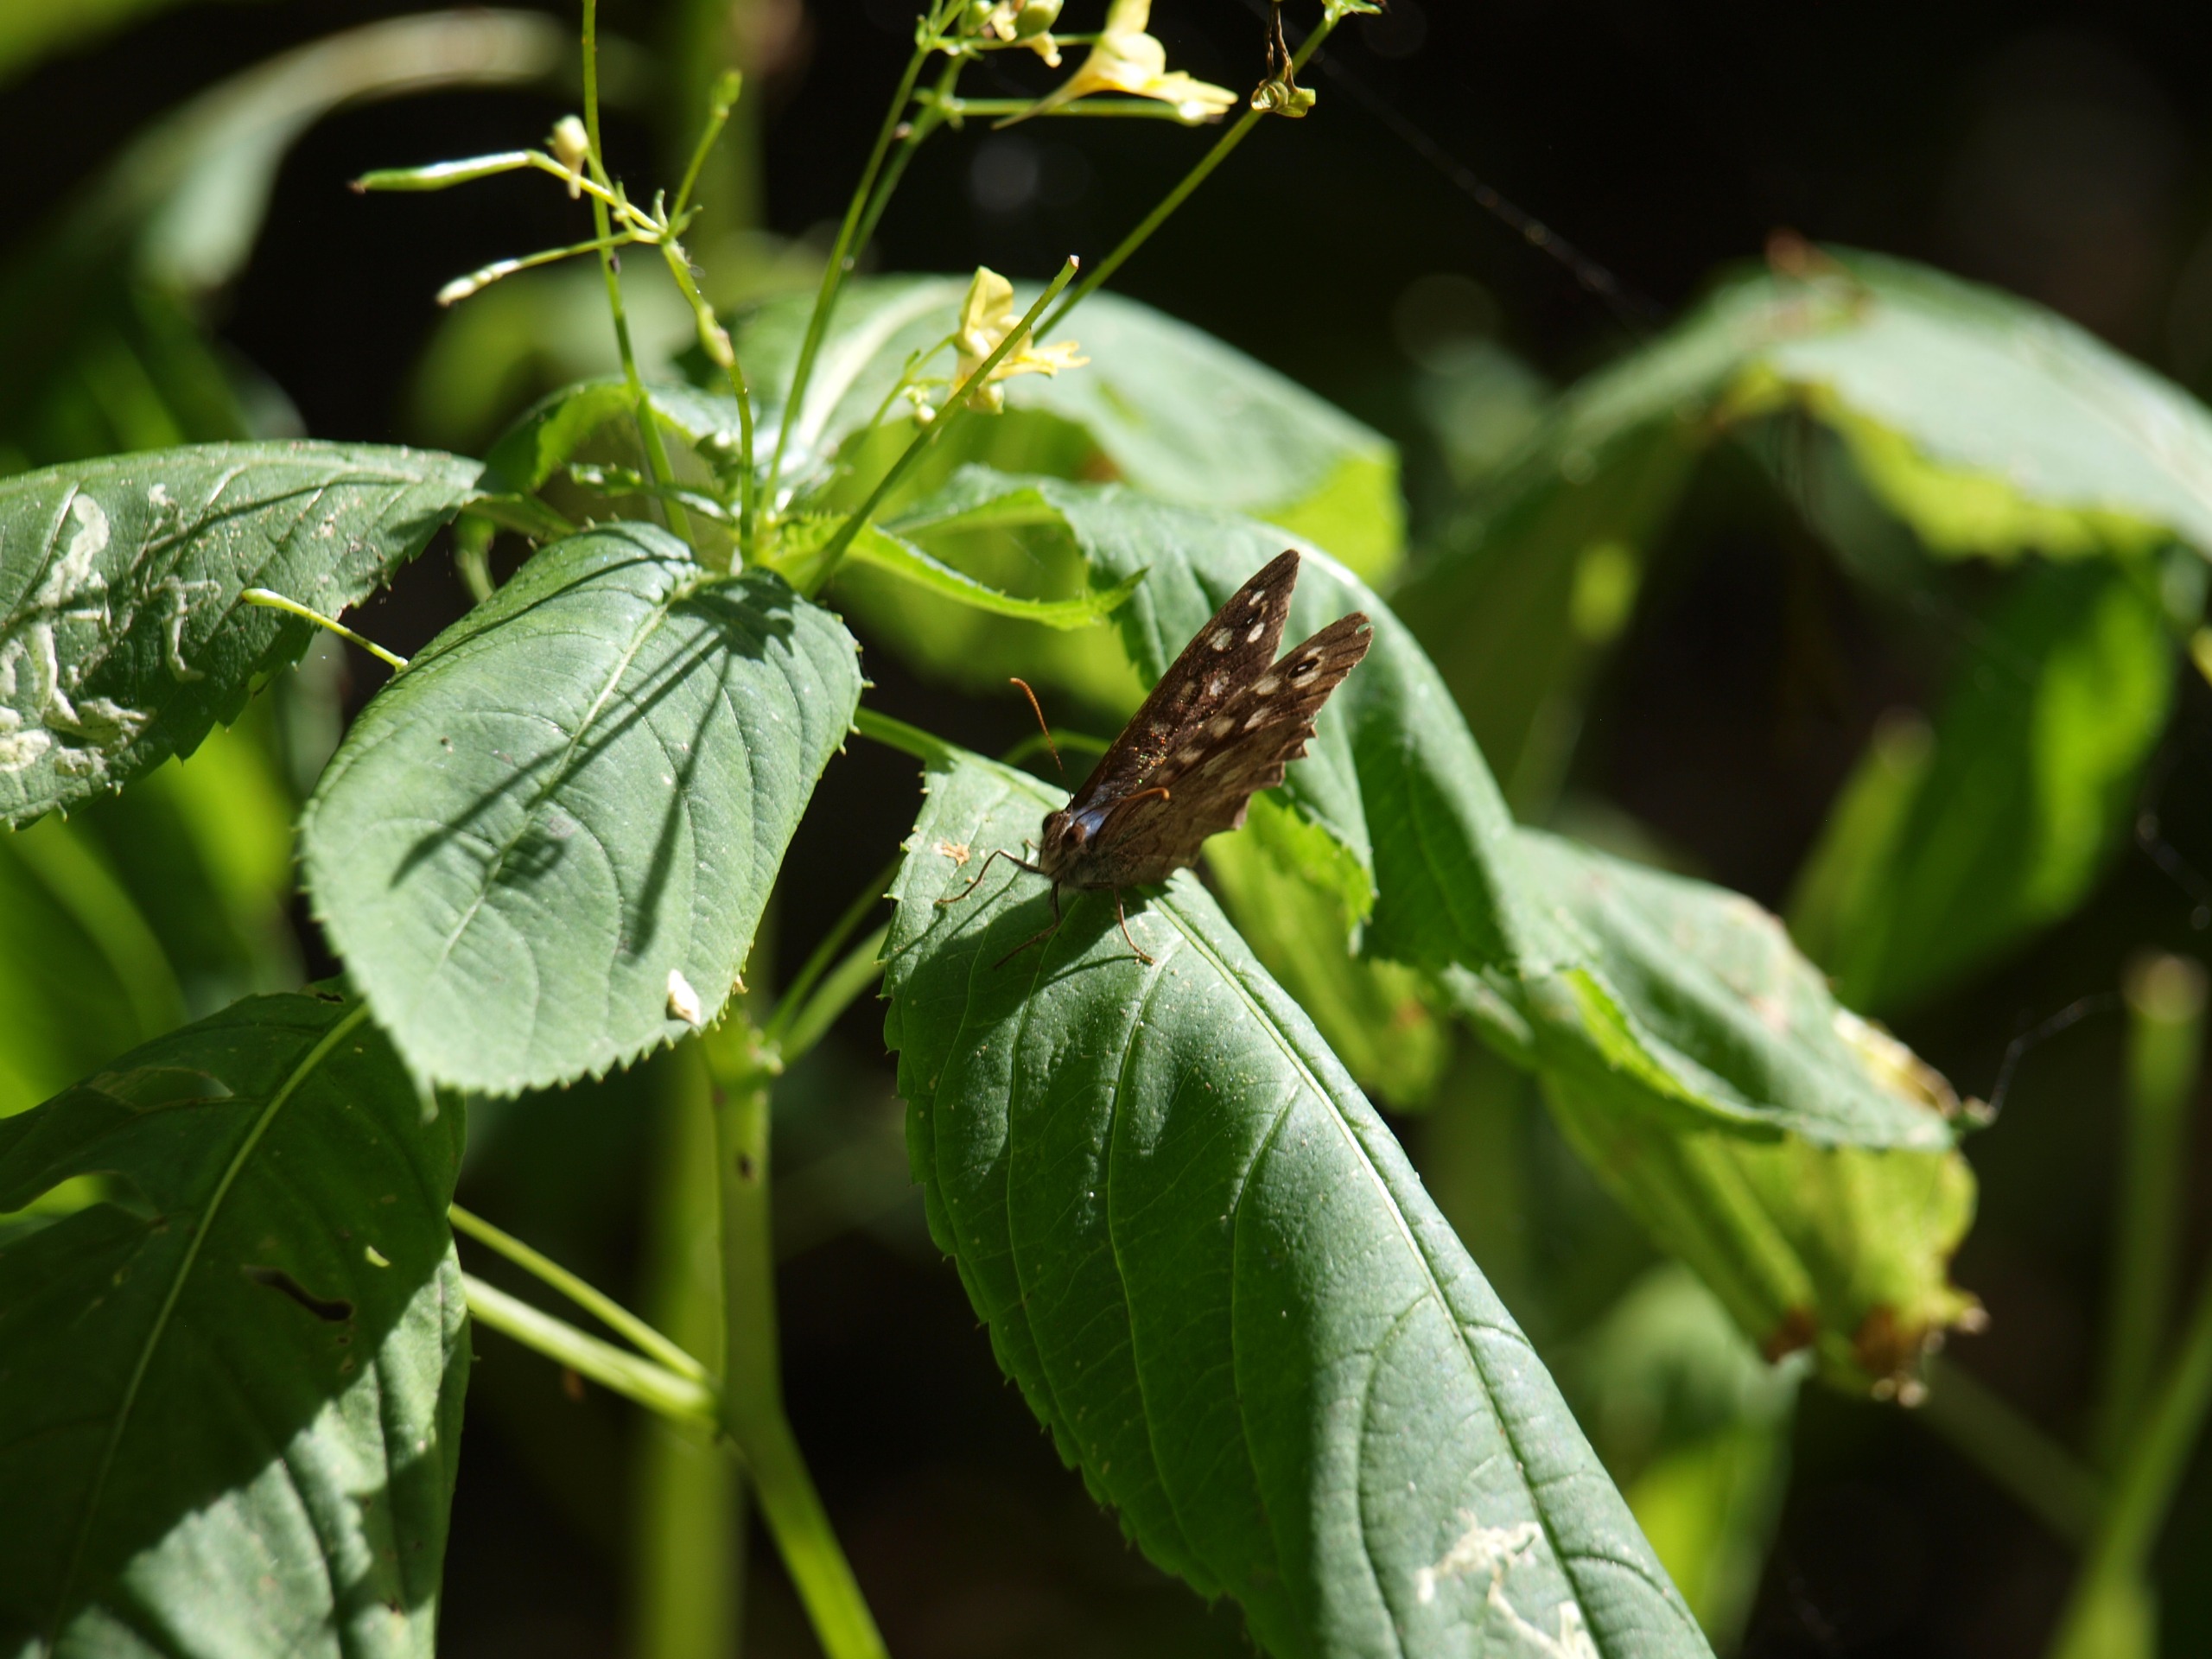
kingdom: Animalia
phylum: Arthropoda
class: Insecta
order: Lepidoptera
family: Nymphalidae
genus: Pararge
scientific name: Pararge aegeria
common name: Skovrandøje
